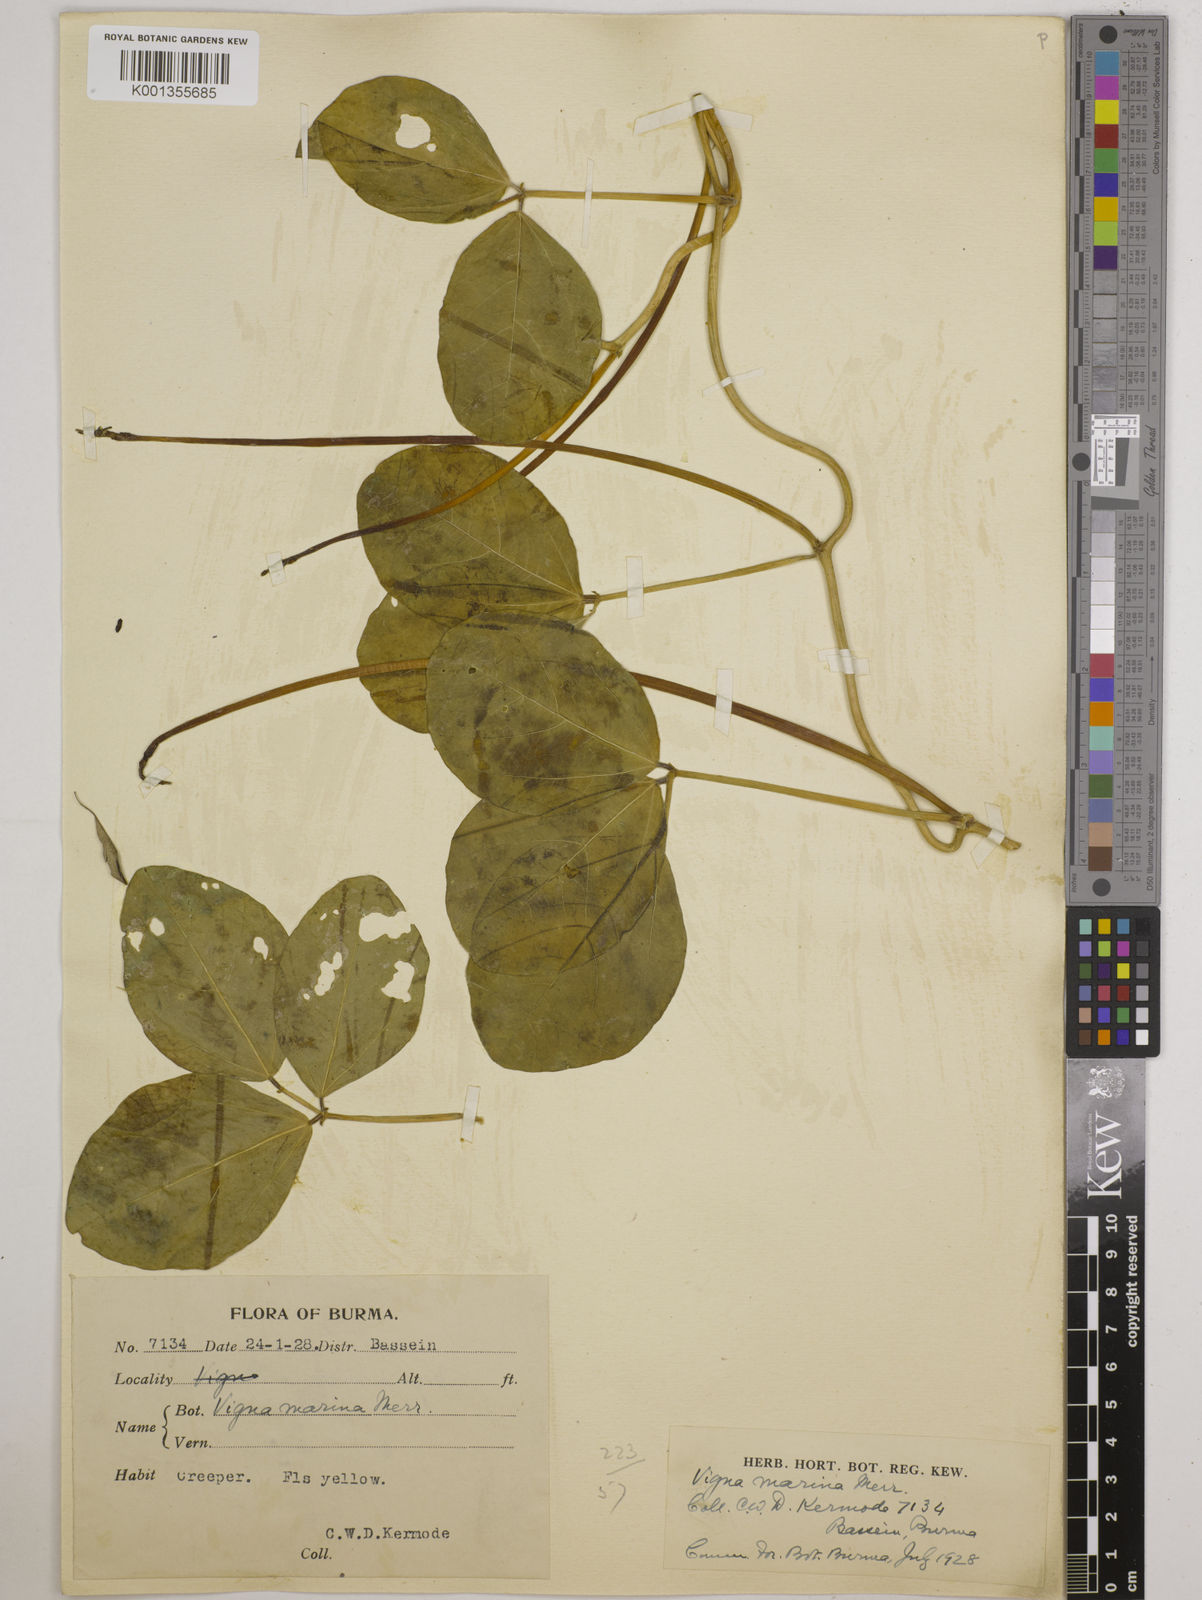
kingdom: Plantae
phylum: Tracheophyta
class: Magnoliopsida
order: Fabales
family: Fabaceae
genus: Vigna
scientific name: Vigna marina
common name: Dune-bean
